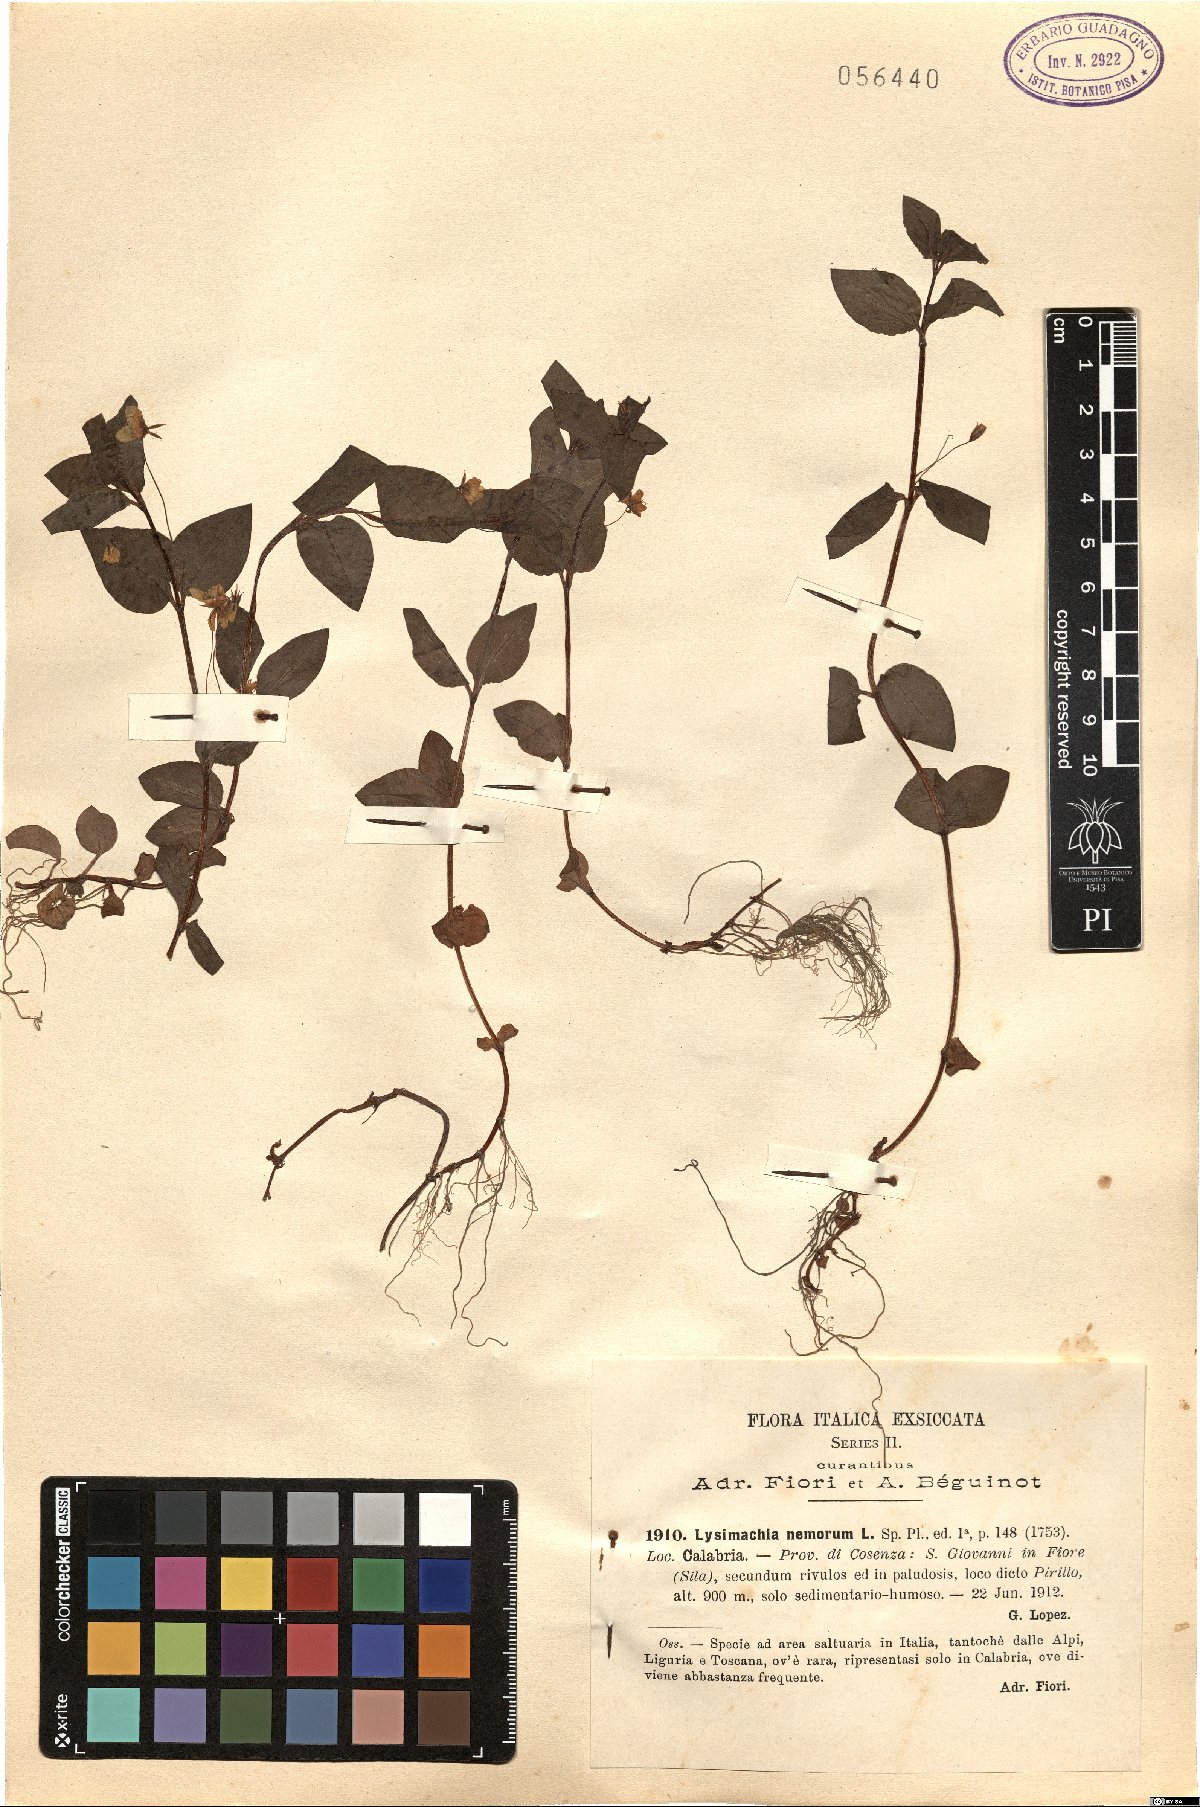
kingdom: Plantae
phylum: Tracheophyta
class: Magnoliopsida
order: Ericales
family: Primulaceae
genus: Lysimachia
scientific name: Lysimachia nemorum
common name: Yellow pimpernel
